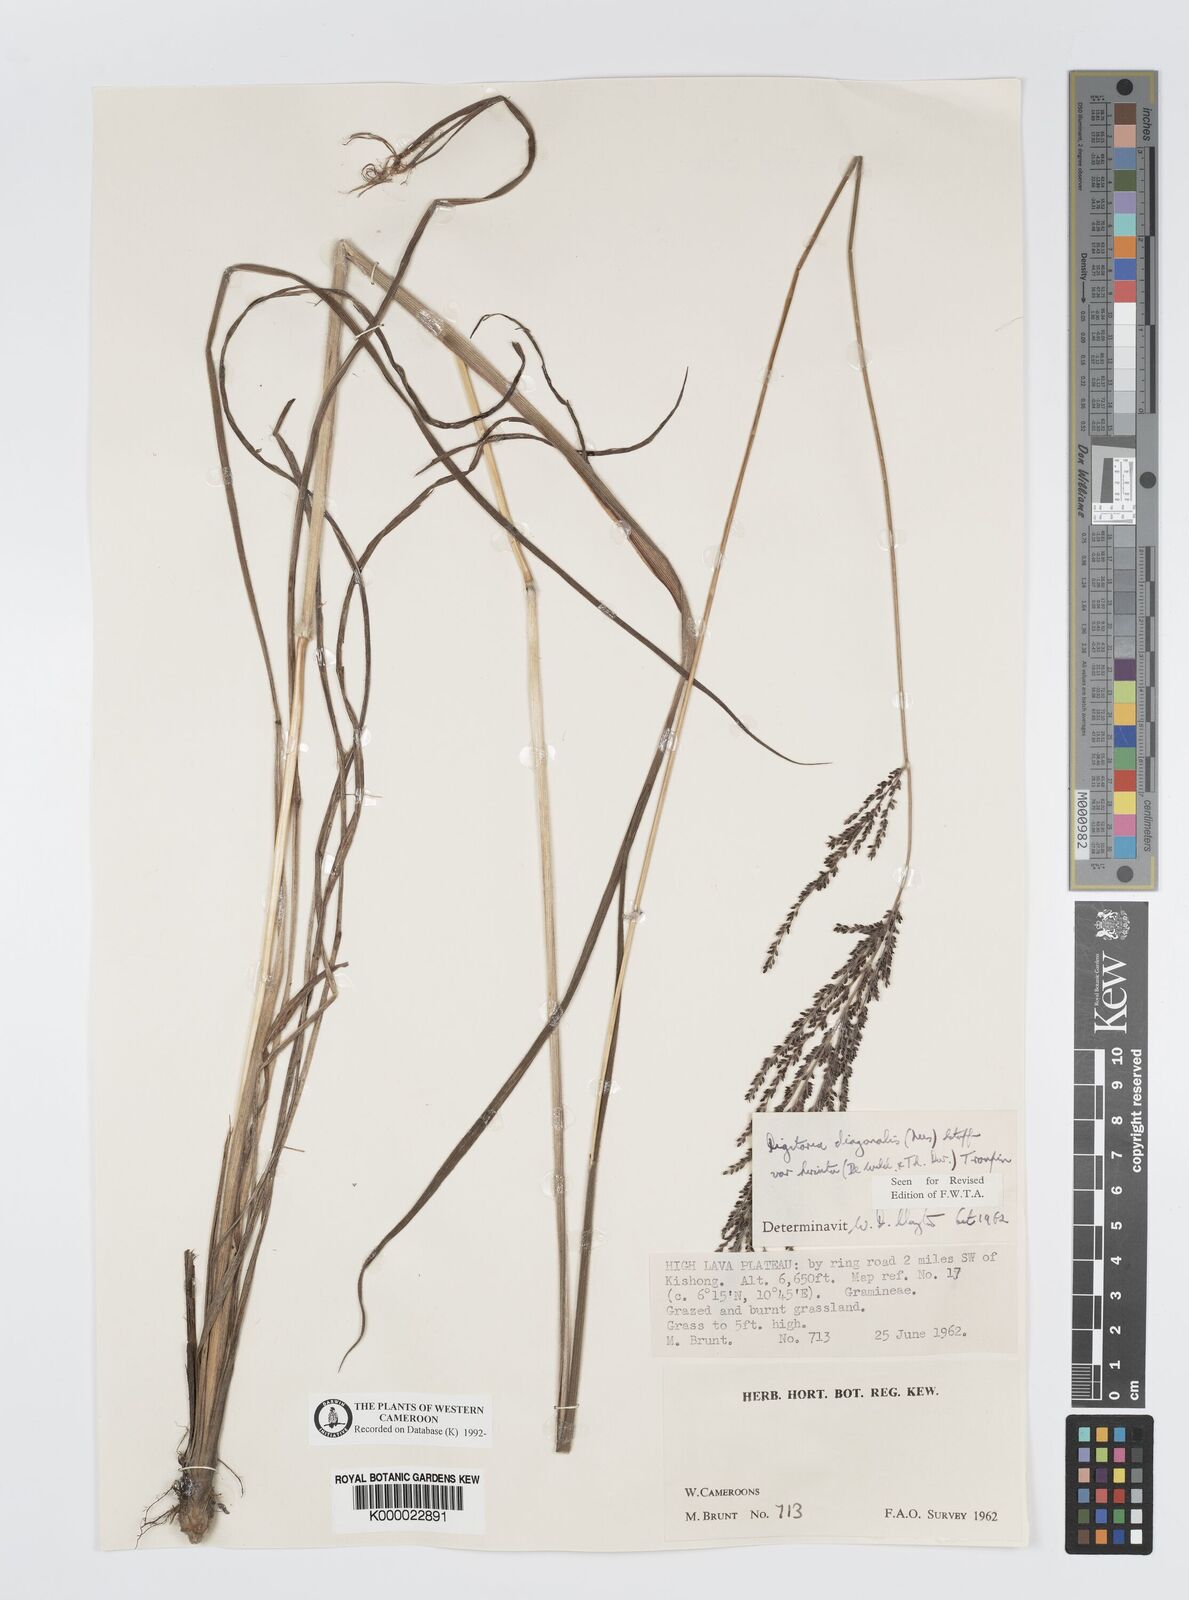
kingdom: Plantae
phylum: Tracheophyta
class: Liliopsida
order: Poales
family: Poaceae
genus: Digitaria
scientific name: Digitaria diagonalis
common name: Brown-seed finger grass
